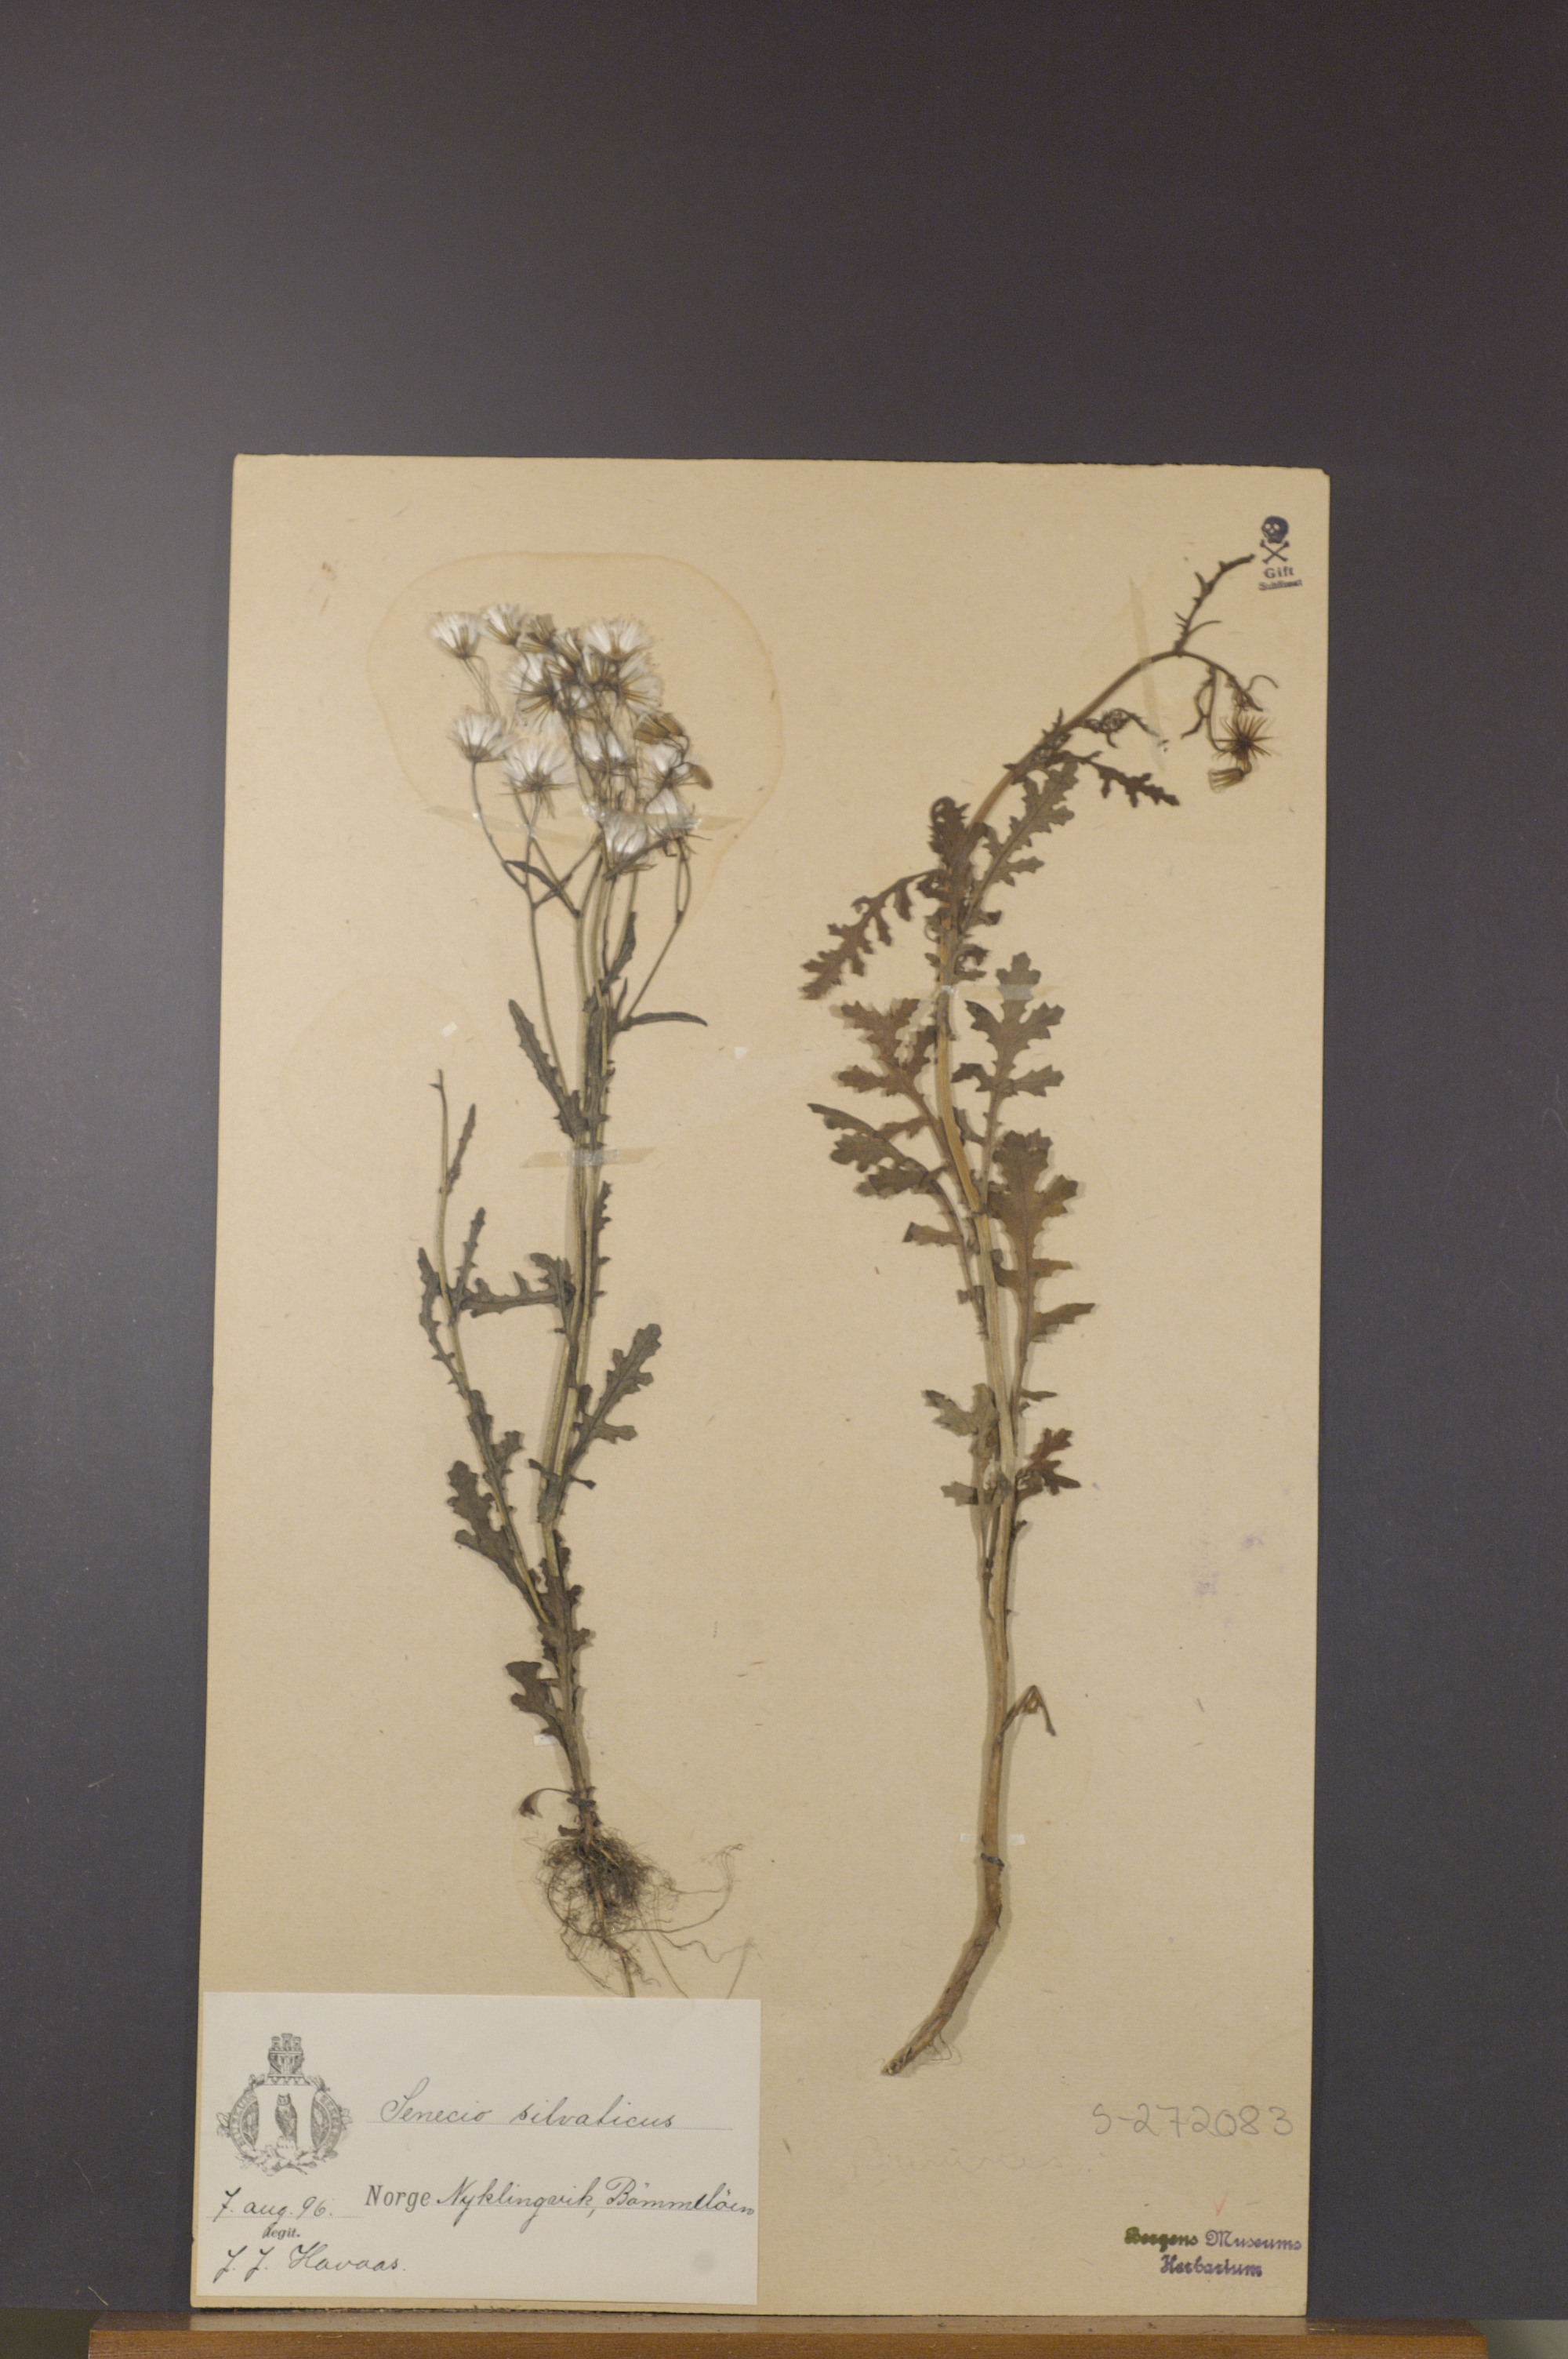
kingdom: Plantae
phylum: Tracheophyta
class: Magnoliopsida
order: Asterales
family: Asteraceae
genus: Senecio
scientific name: Senecio sylvaticus
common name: Woodland ragwort
